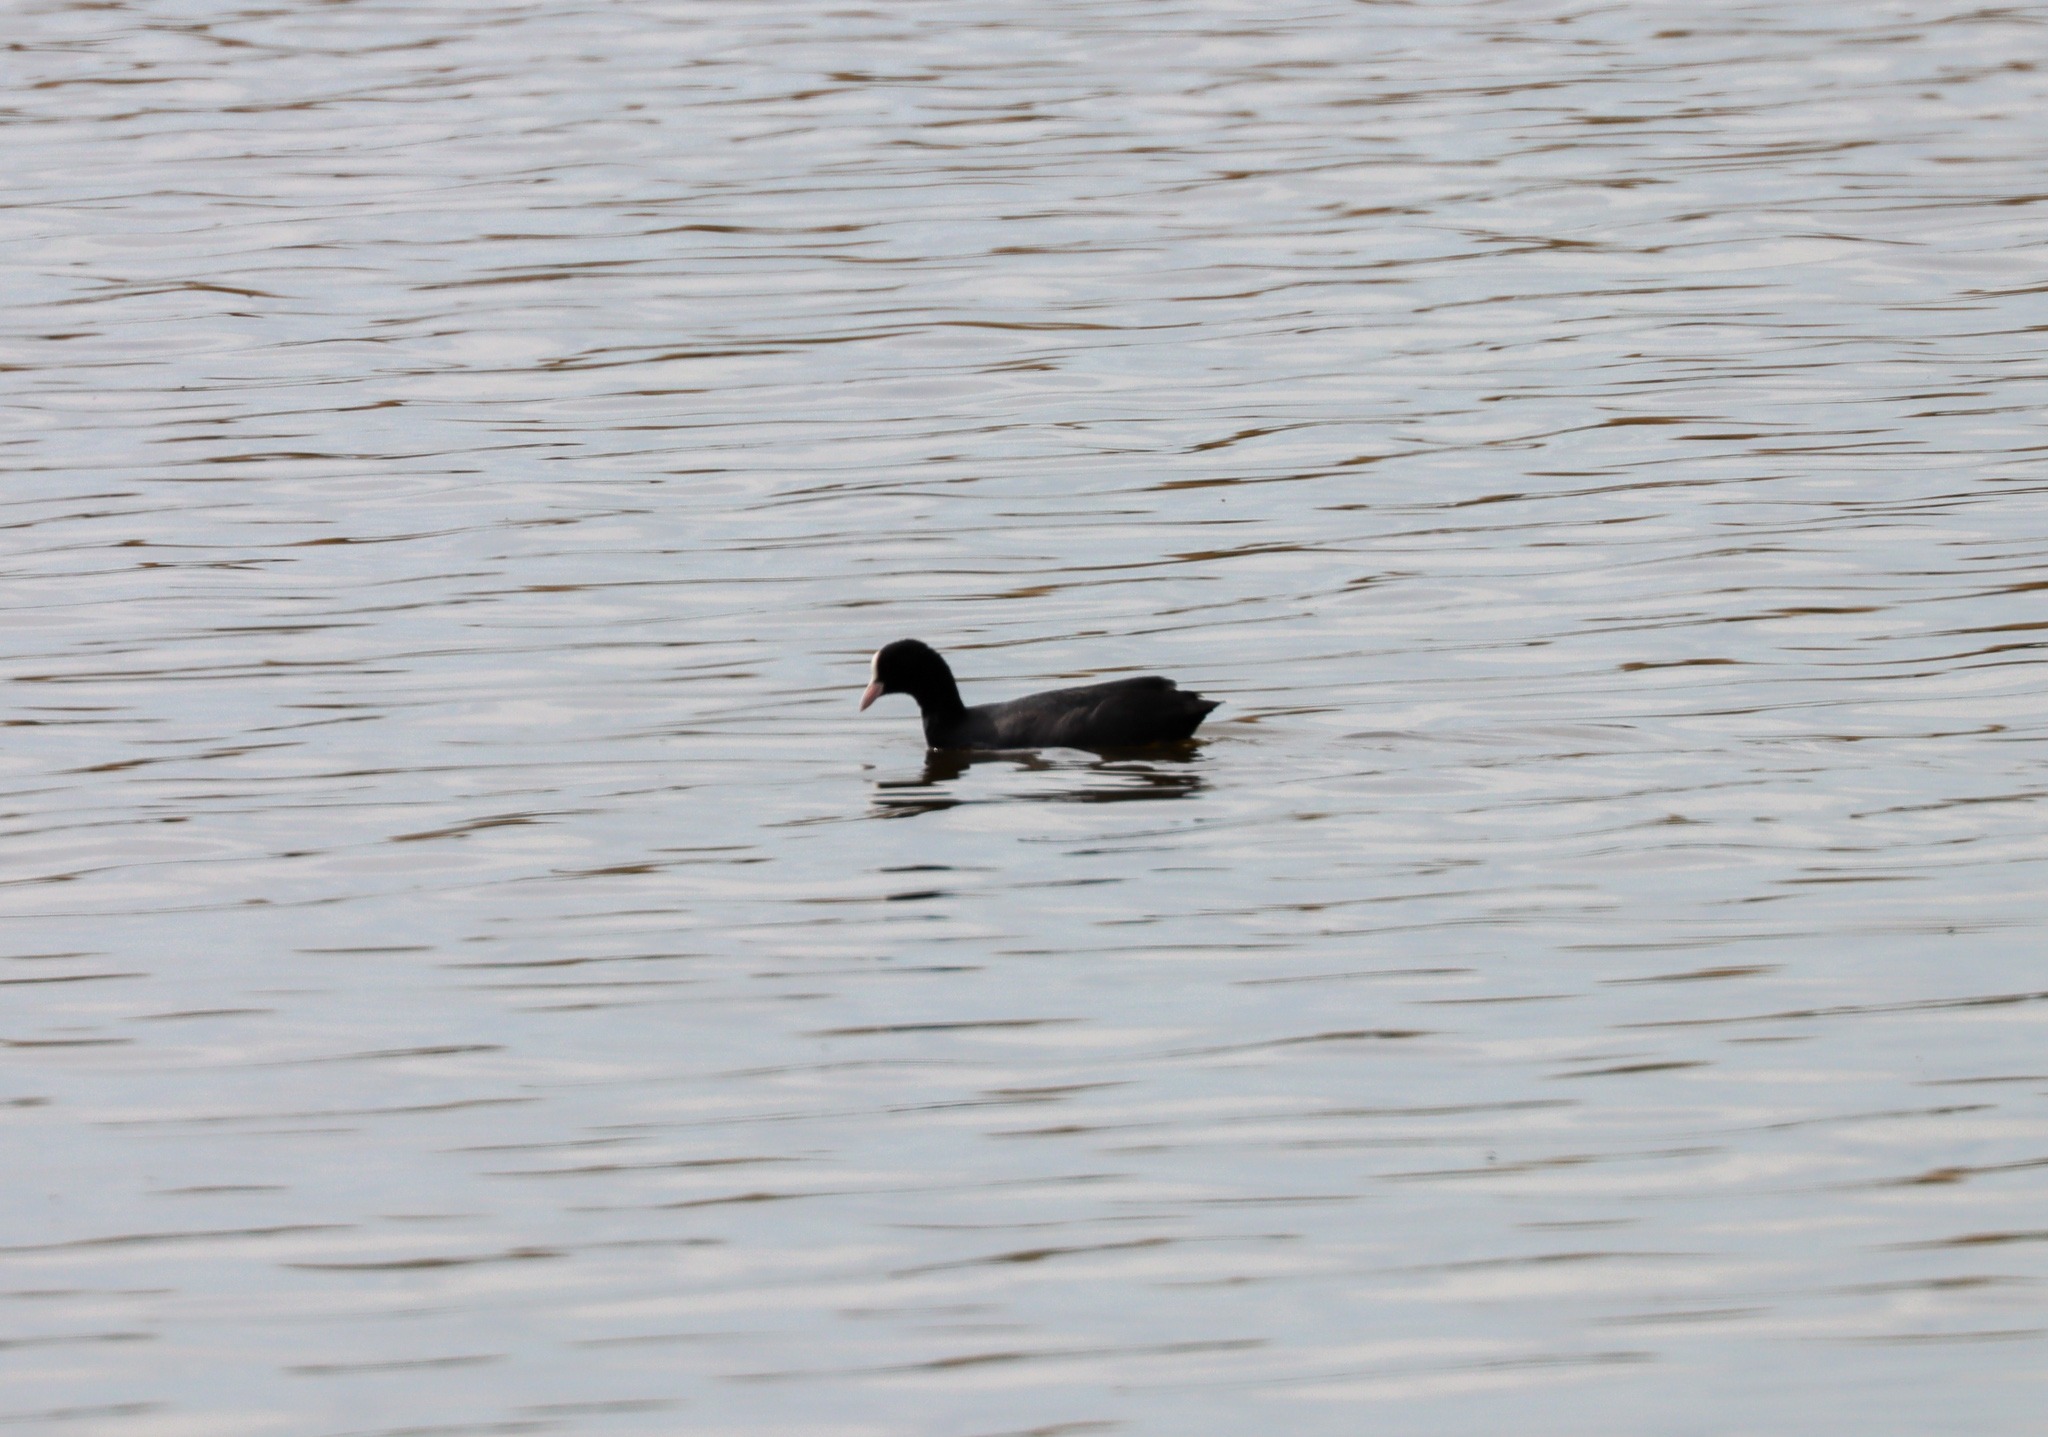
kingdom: Animalia
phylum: Chordata
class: Aves
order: Gruiformes
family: Rallidae
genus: Fulica
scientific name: Fulica atra
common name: Blishøne
